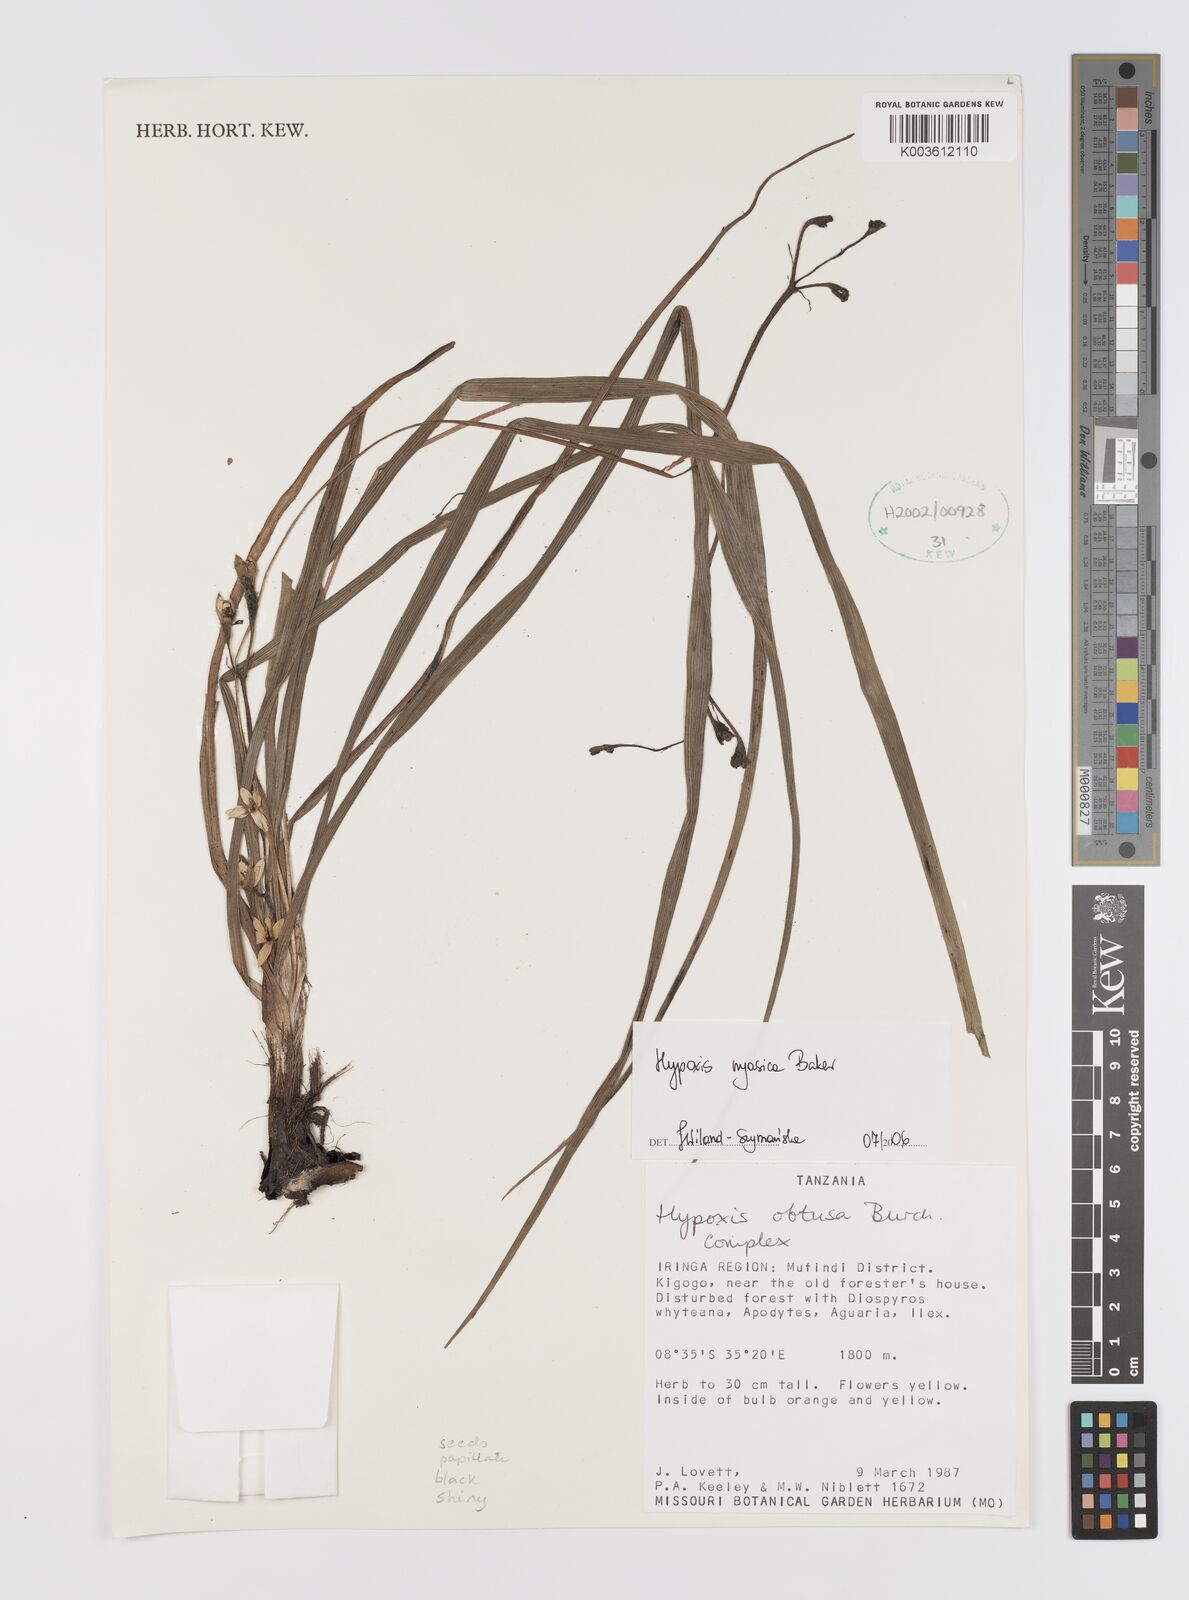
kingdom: Plantae
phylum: Tracheophyta
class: Liliopsida
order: Asparagales
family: Hypoxidaceae
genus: Hypoxis
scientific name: Hypoxis nyasica
